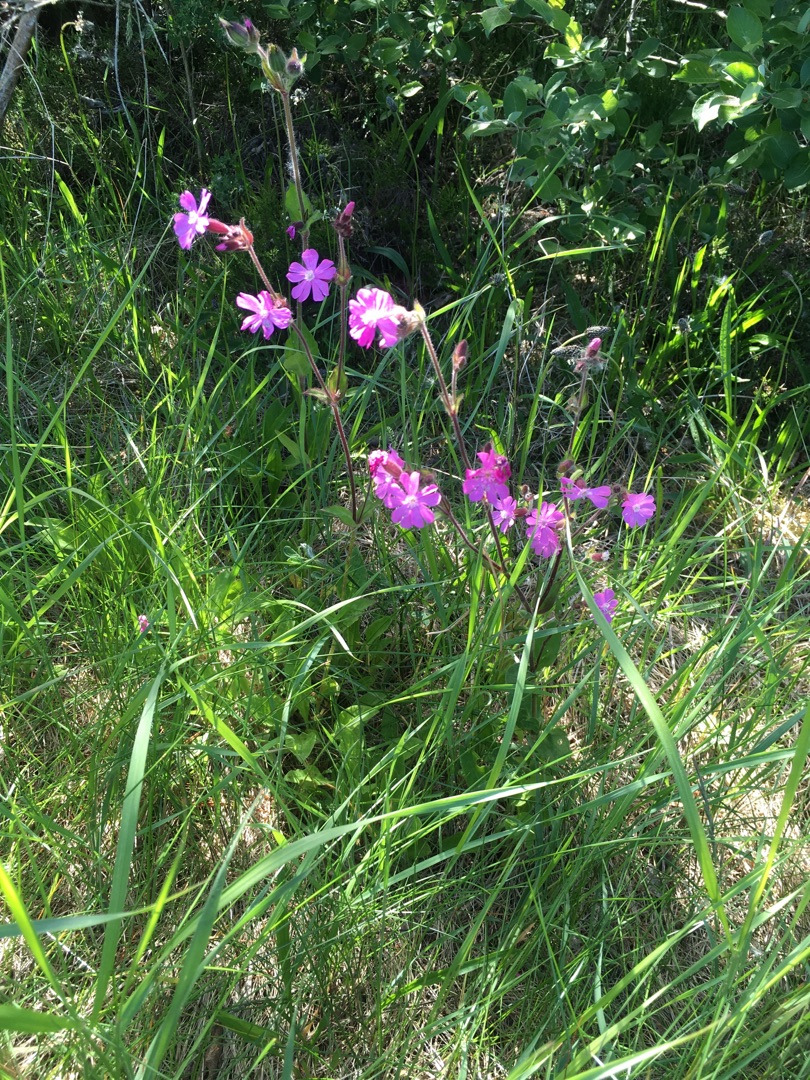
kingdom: Plantae
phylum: Tracheophyta
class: Magnoliopsida
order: Caryophyllales
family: Caryophyllaceae
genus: Silene
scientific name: Silene dioica
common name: Dagpragtstjerne
